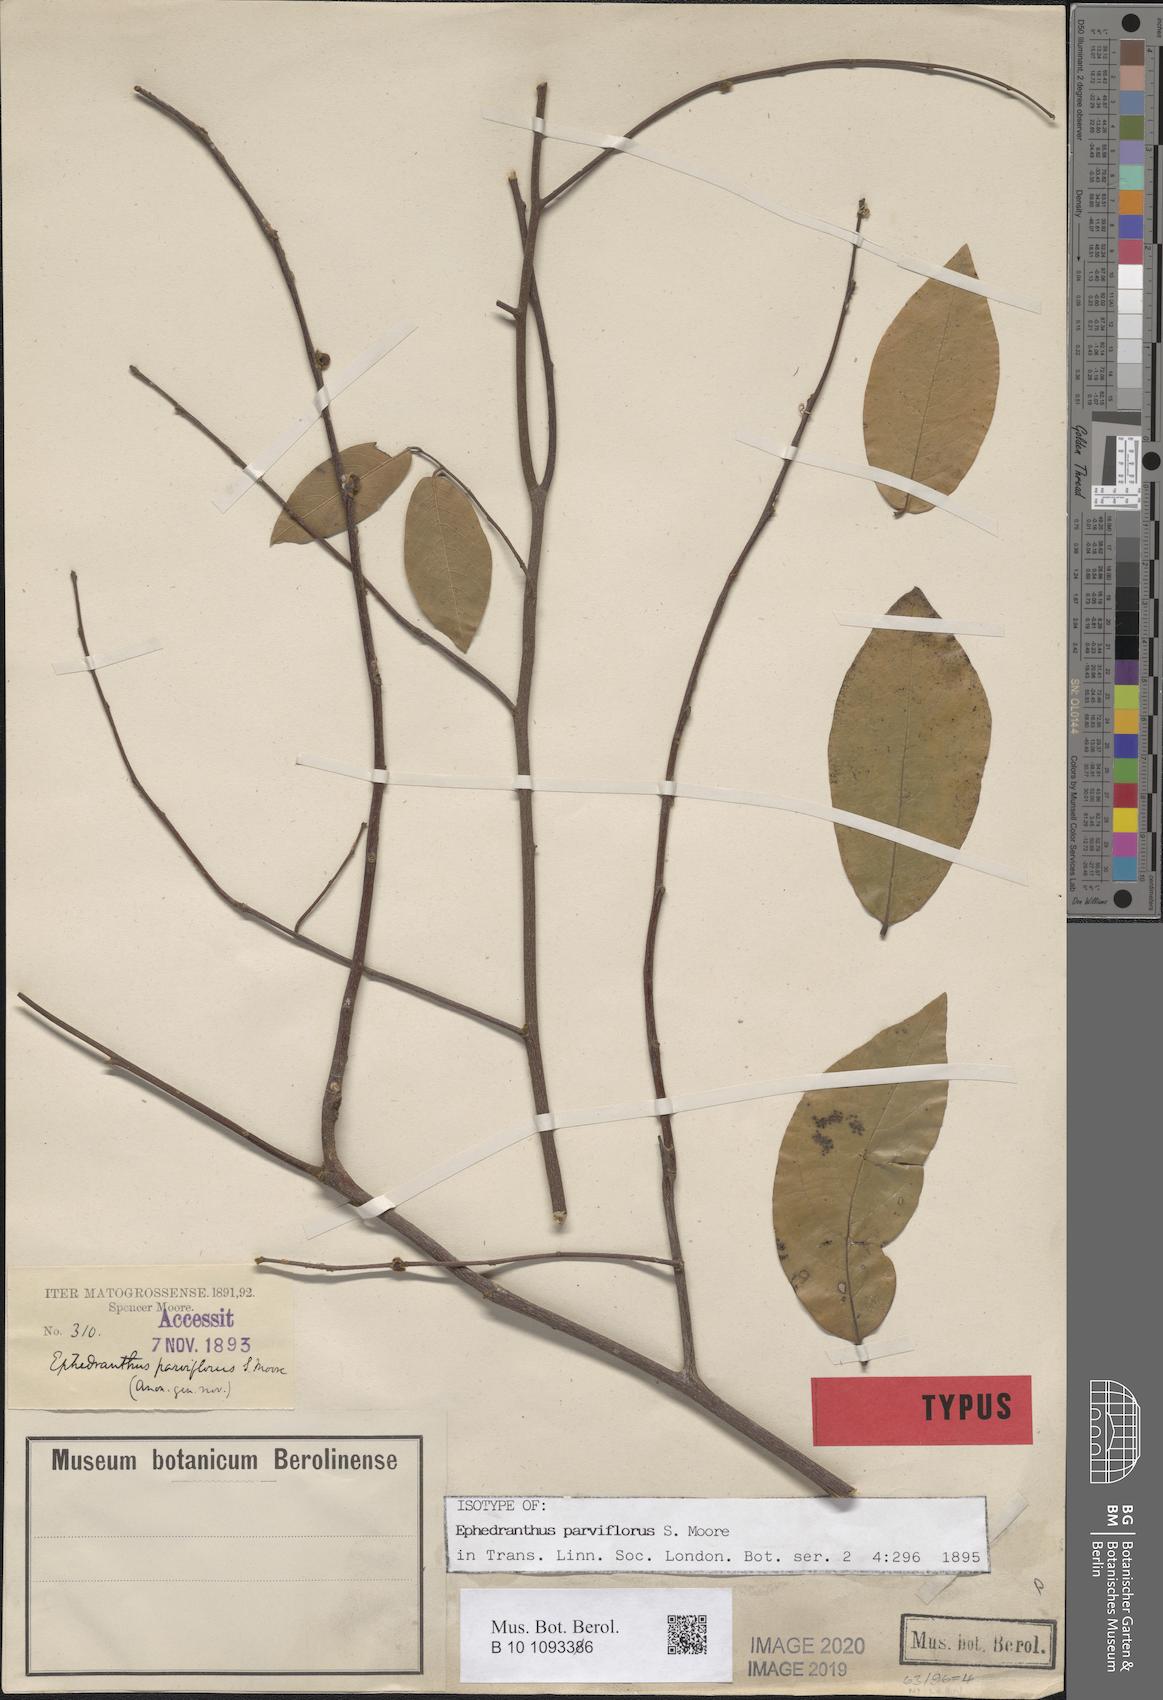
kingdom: Plantae
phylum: Tracheophyta
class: Magnoliopsida
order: Magnoliales
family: Annonaceae
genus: Ephedranthus
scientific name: Ephedranthus parviflorus
